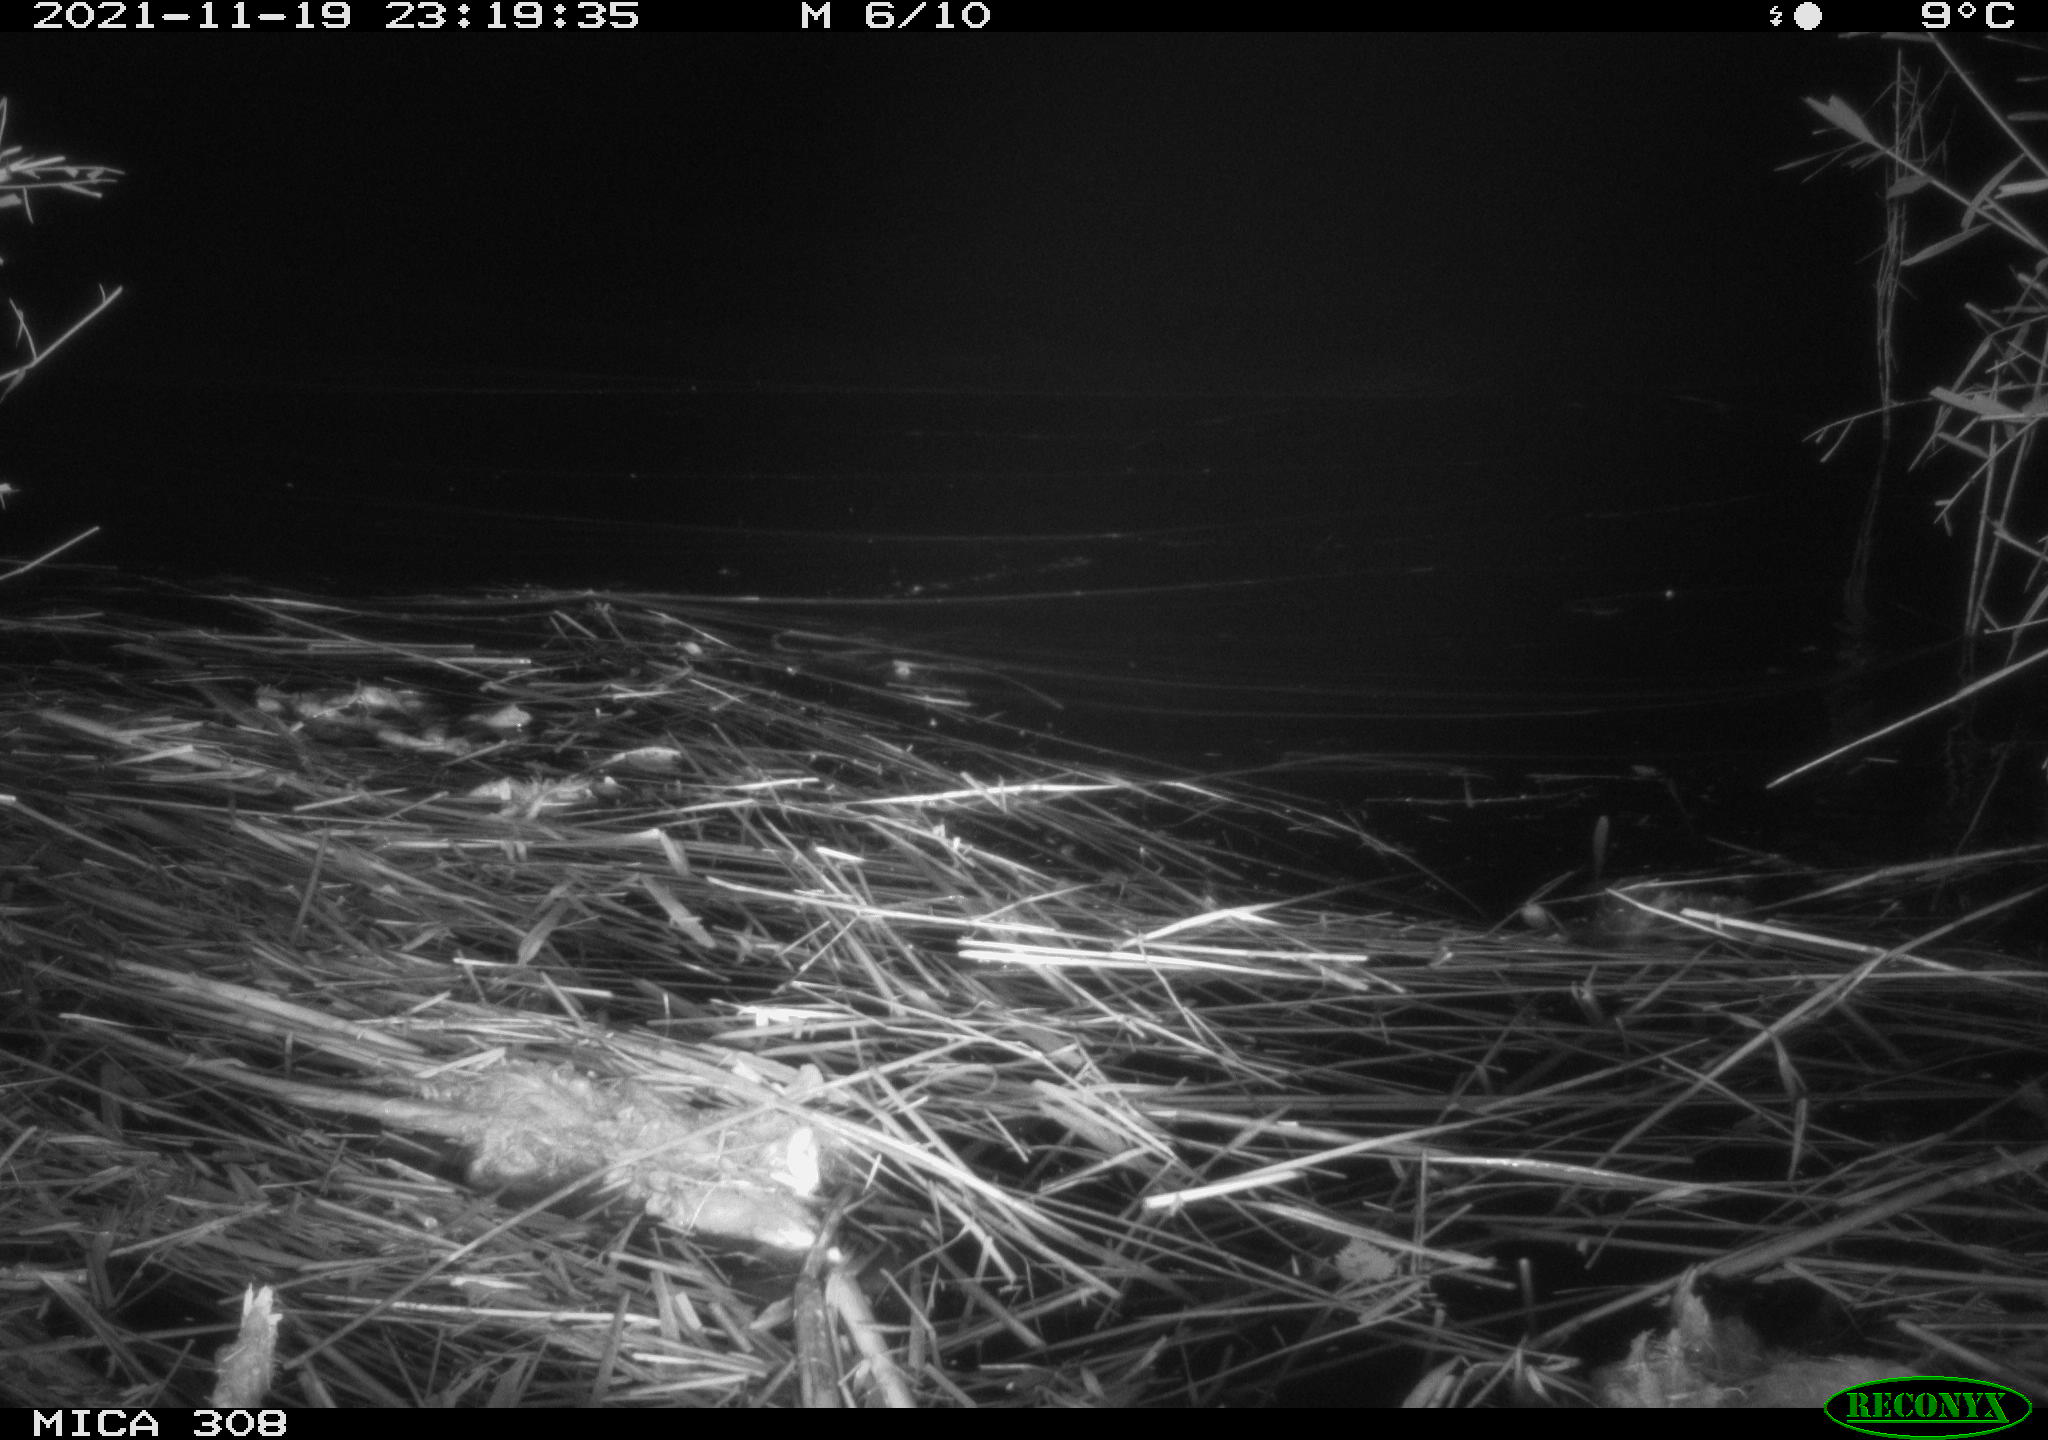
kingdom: Animalia
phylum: Chordata
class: Mammalia
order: Rodentia
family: Muridae
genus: Rattus
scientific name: Rattus norvegicus
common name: Brown rat
